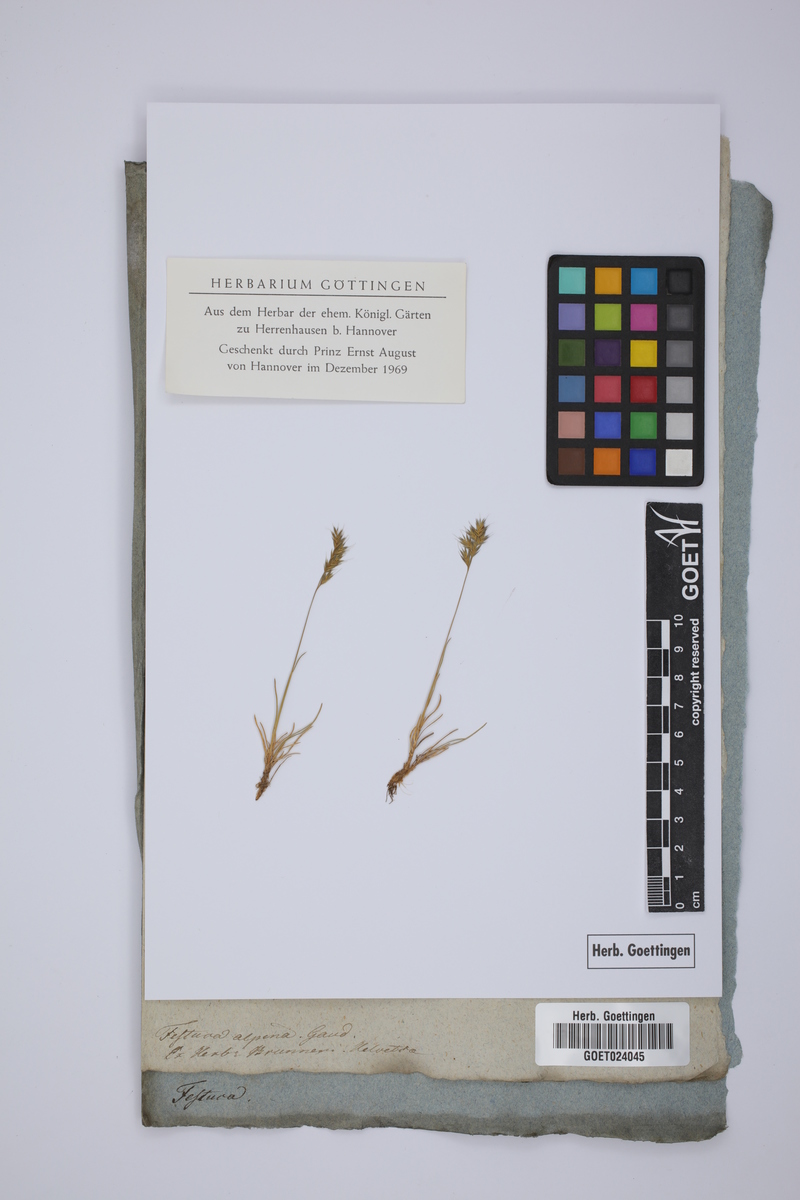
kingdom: Plantae
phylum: Tracheophyta
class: Liliopsida
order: Poales
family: Poaceae
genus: Festuca
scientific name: Festuca alpina
